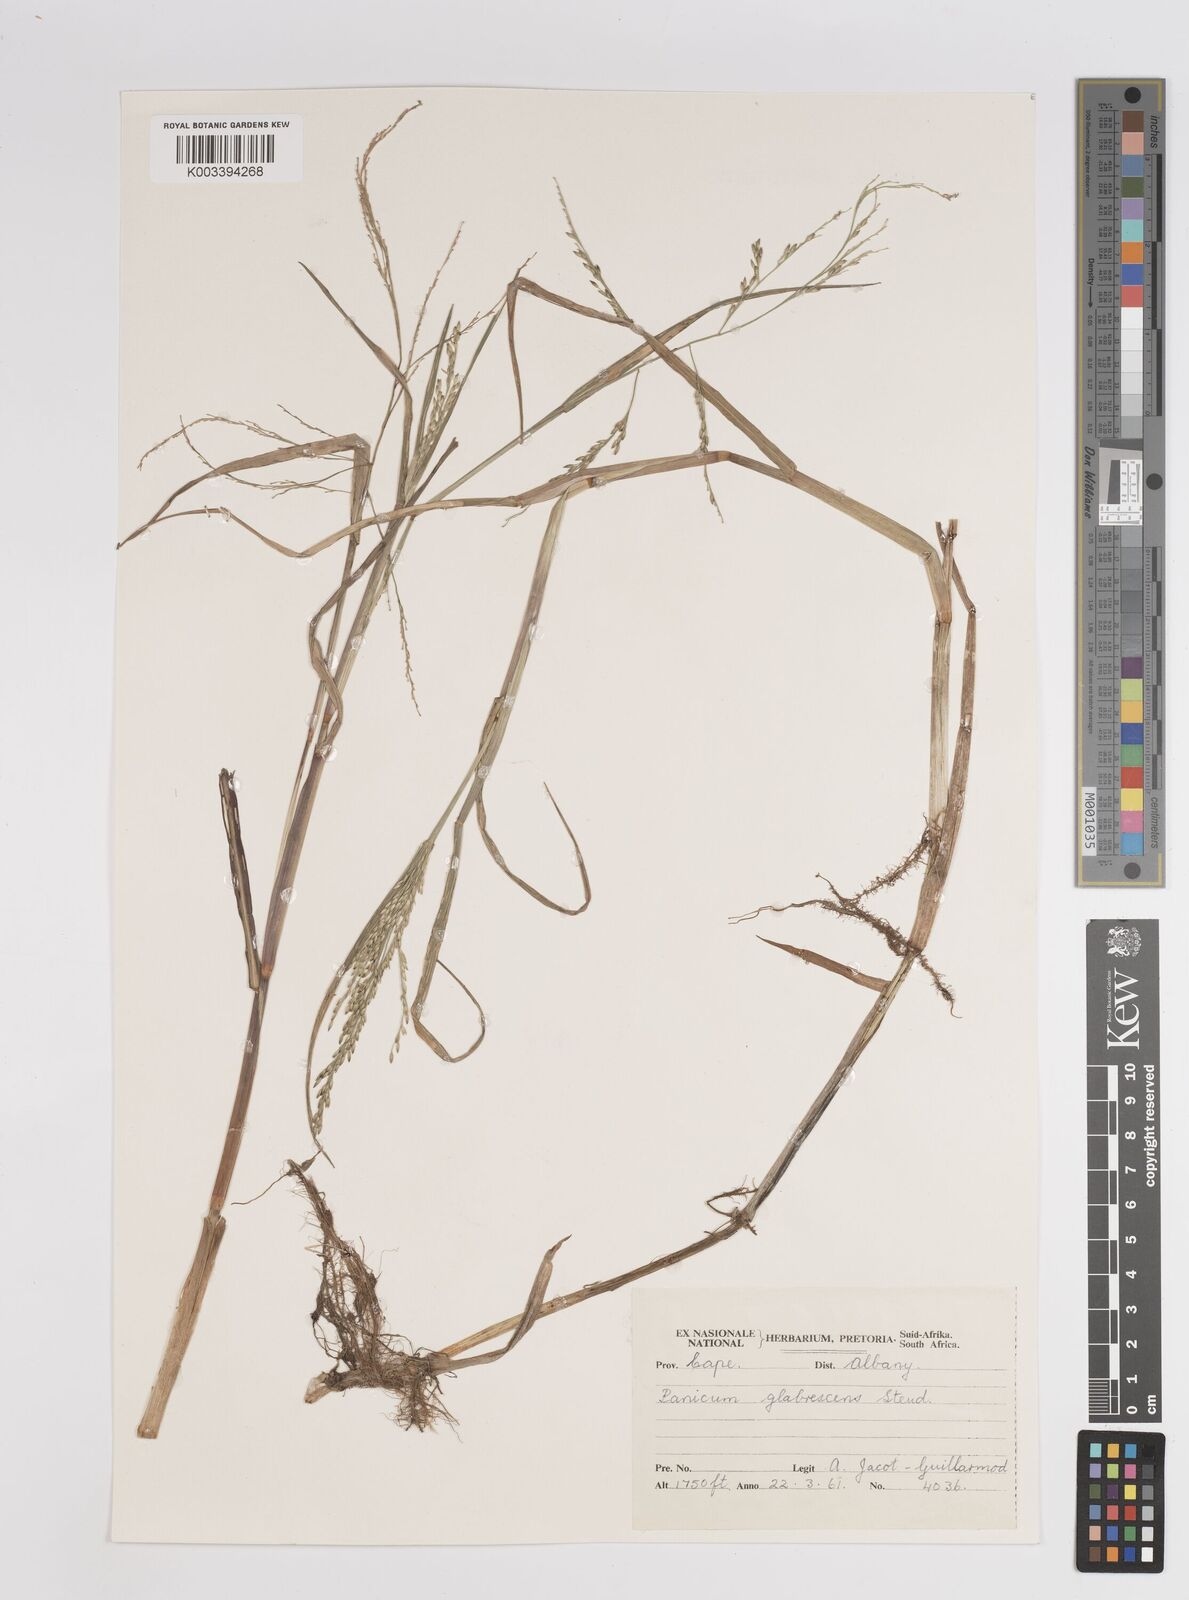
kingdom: Plantae
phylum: Tracheophyta
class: Liliopsida
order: Poales
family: Poaceae
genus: Panicum
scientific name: Panicum subalbidum
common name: Elbow buffalo grass
